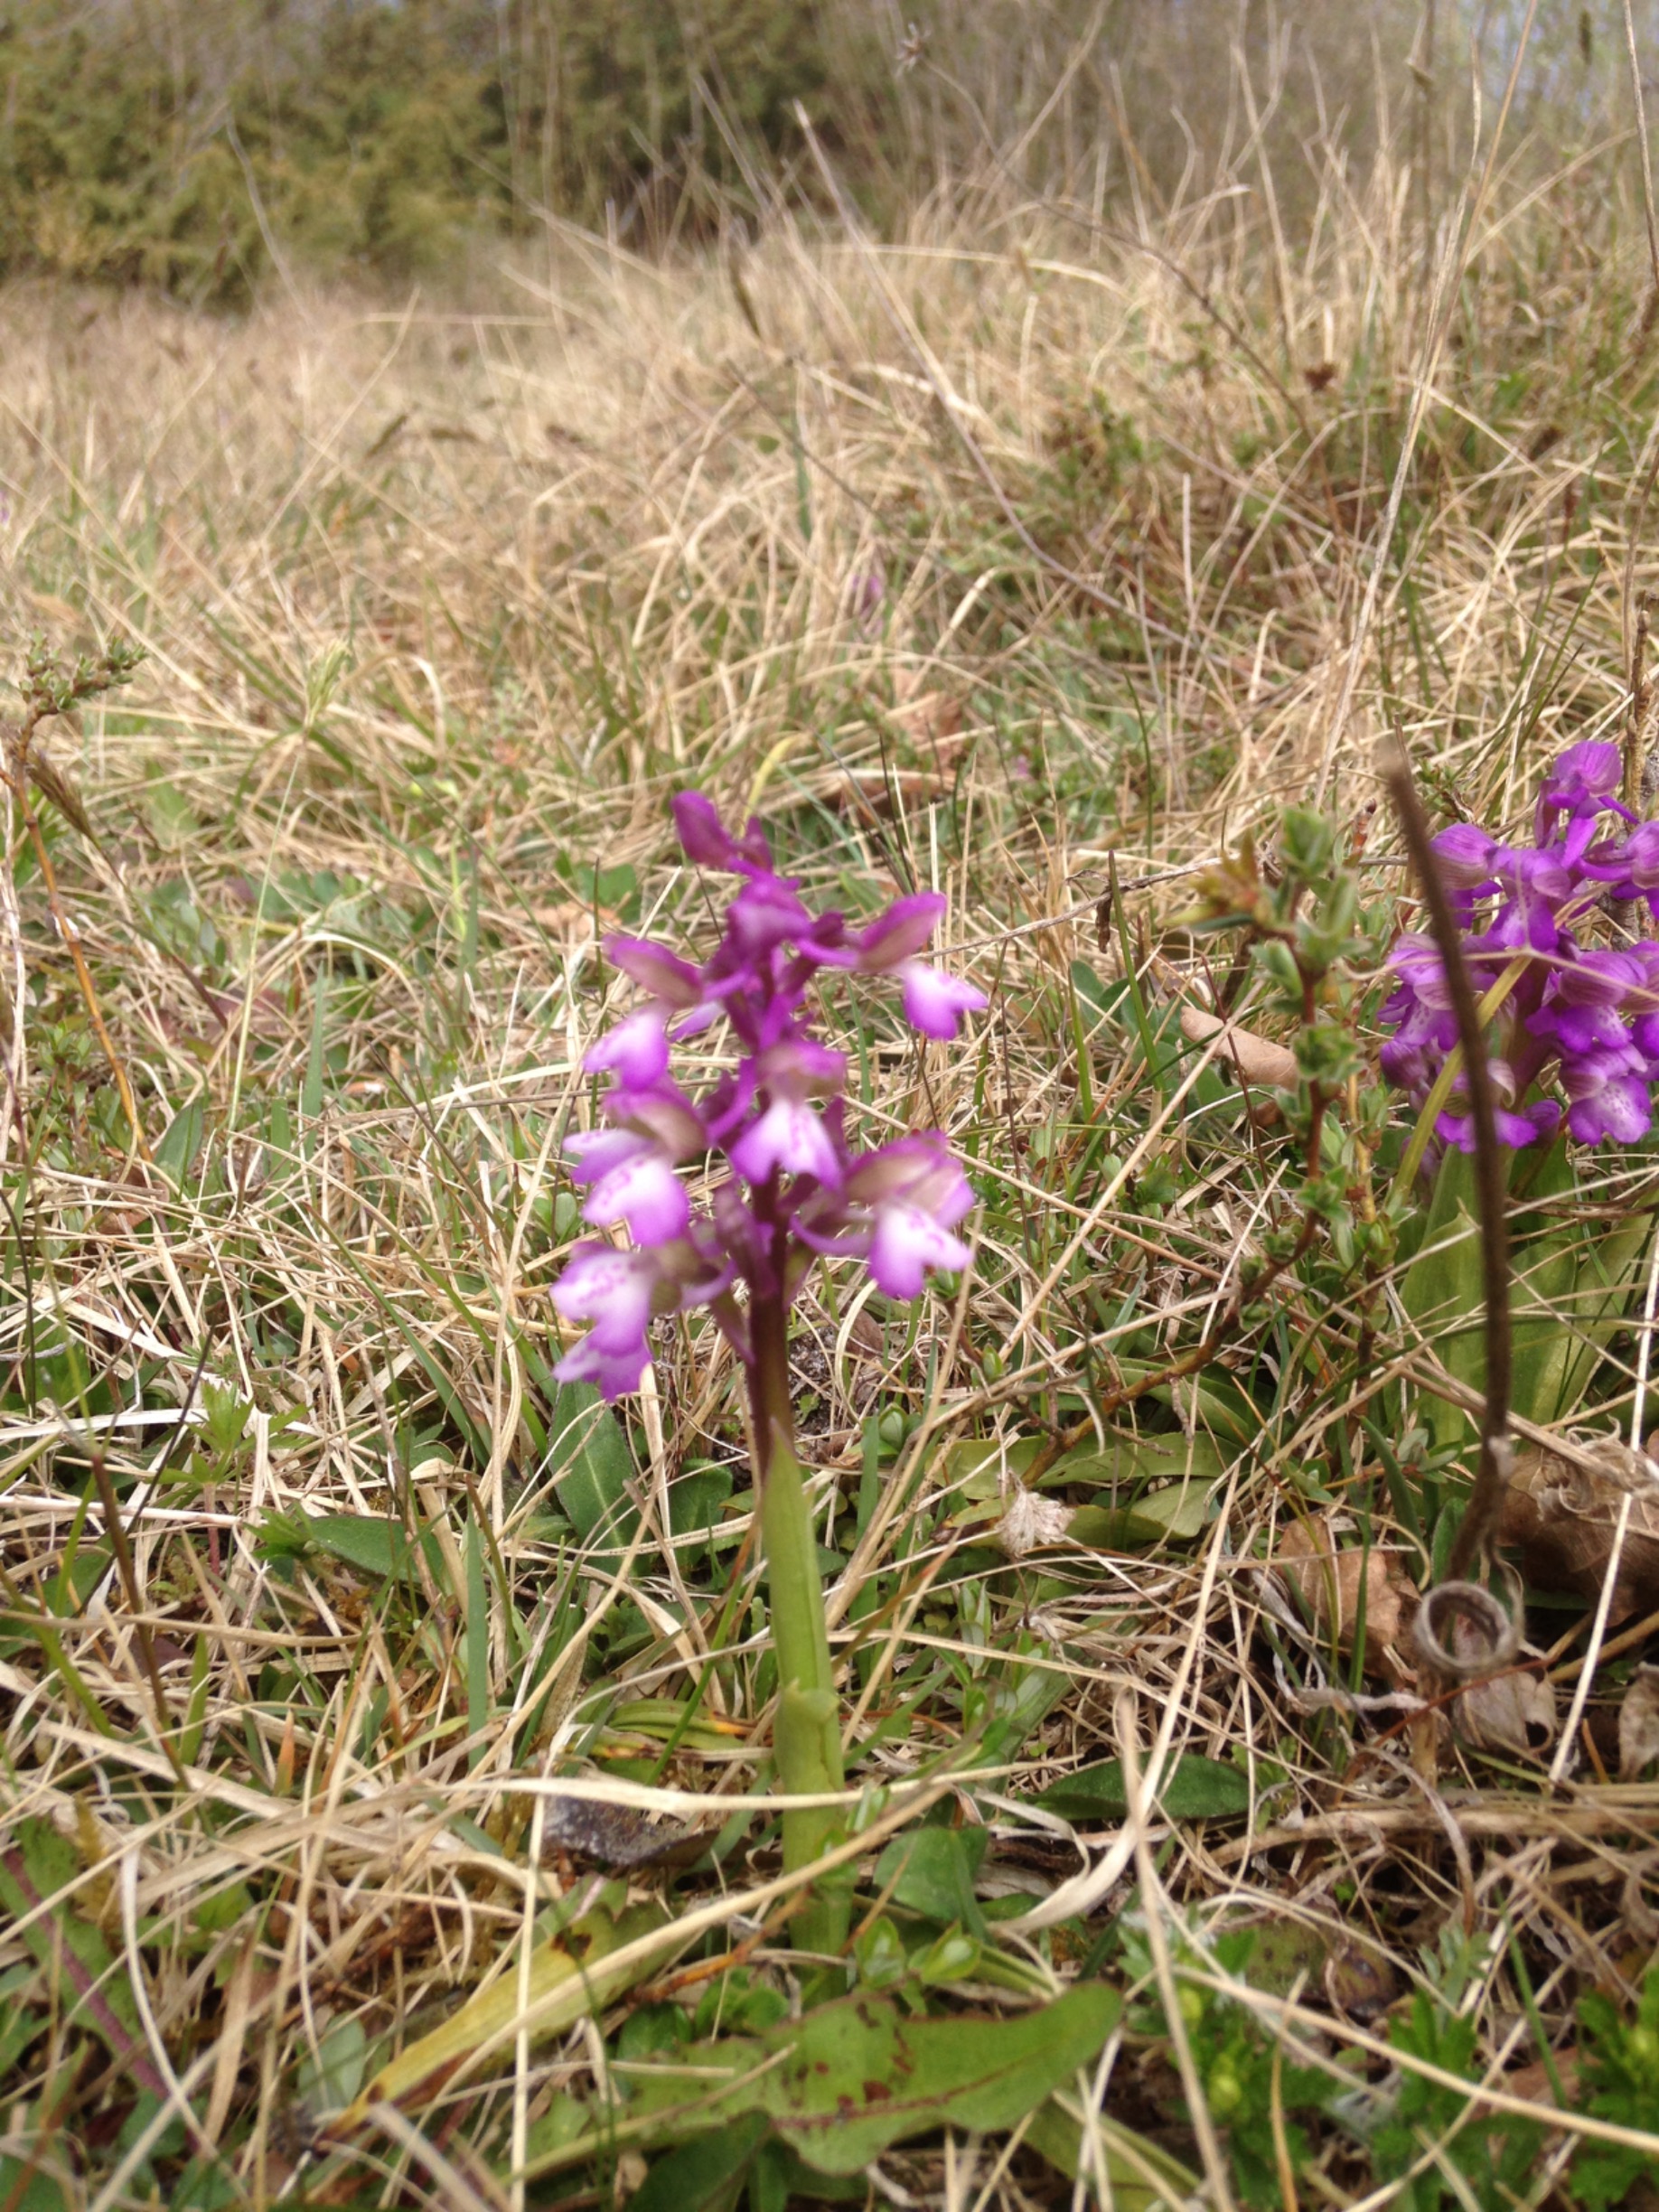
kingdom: Plantae
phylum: Tracheophyta
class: Liliopsida
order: Asparagales
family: Orchidaceae
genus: Anacamptis
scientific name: Anacamptis morio
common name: Salepgøgeurt
